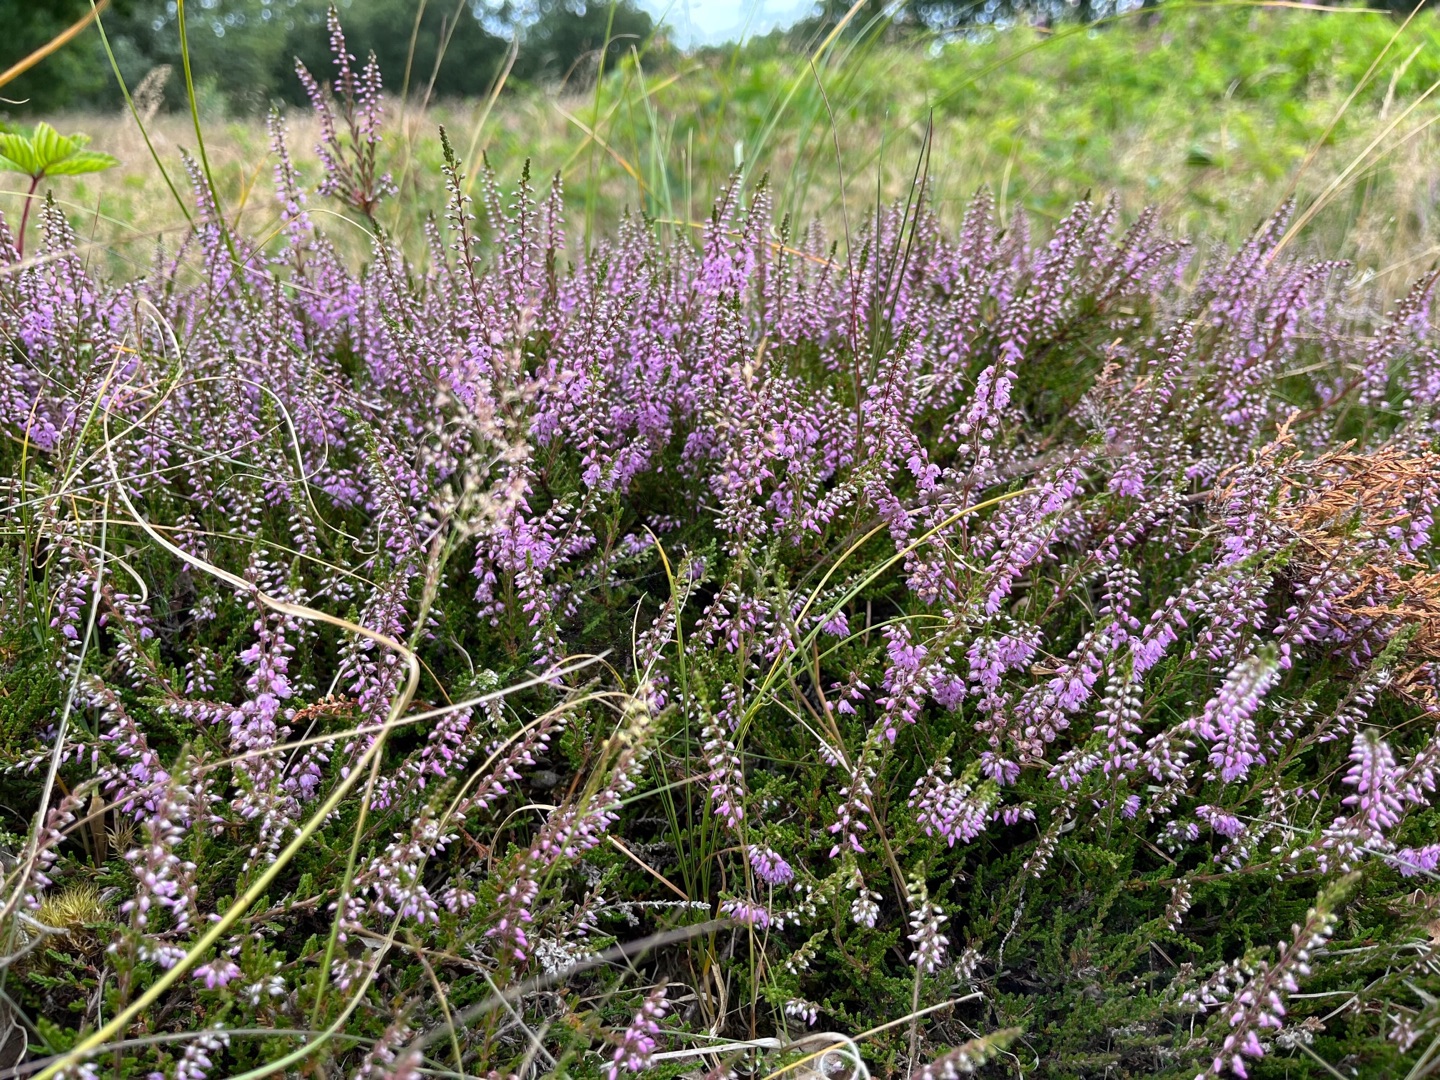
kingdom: Plantae
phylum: Tracheophyta
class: Magnoliopsida
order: Ericales
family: Ericaceae
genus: Calluna
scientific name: Calluna vulgaris
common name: Hedelyng
